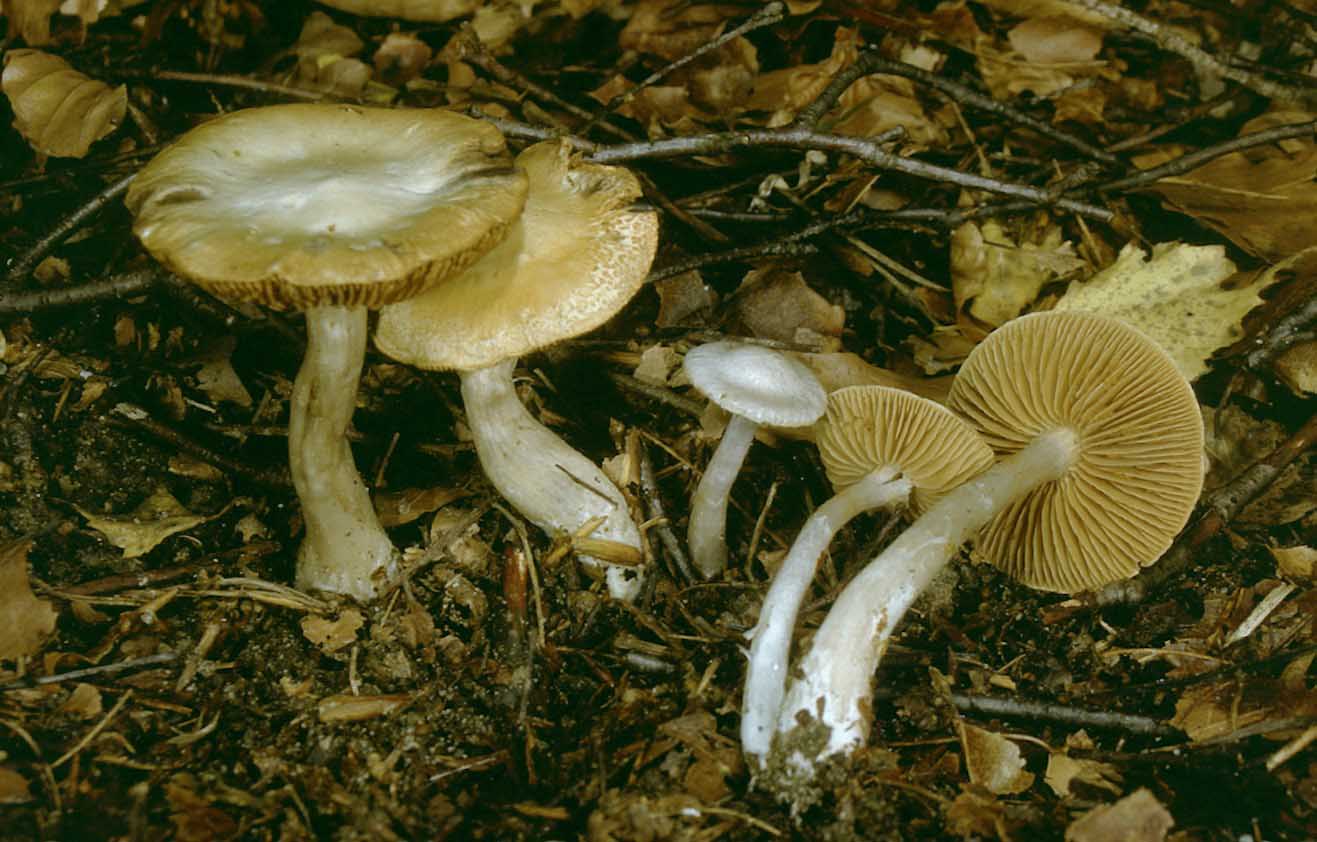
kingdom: Fungi
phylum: Basidiomycota
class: Agaricomycetes
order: Agaricales
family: Cortinariaceae
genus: Cortinarius
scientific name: Cortinarius alboviolaceus
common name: lysviolet slørhat
